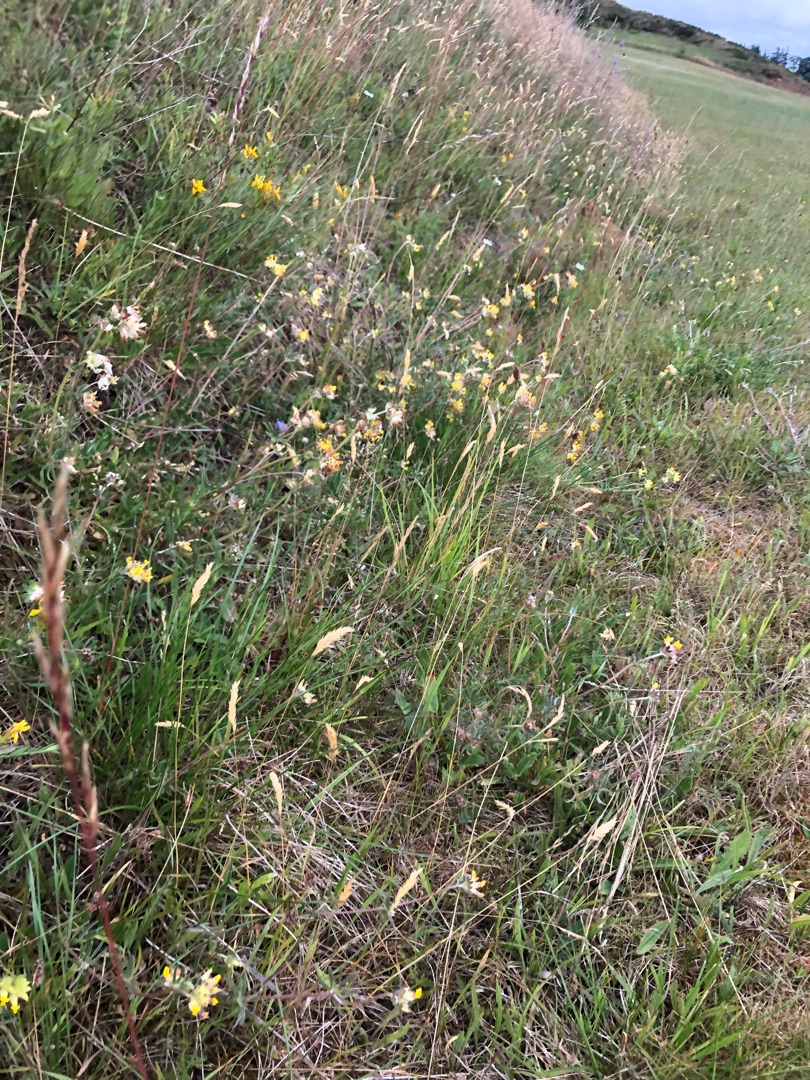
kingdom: Plantae
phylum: Tracheophyta
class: Magnoliopsida
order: Fabales
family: Fabaceae
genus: Anthyllis
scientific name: Anthyllis vulneraria
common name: Rundbælg
